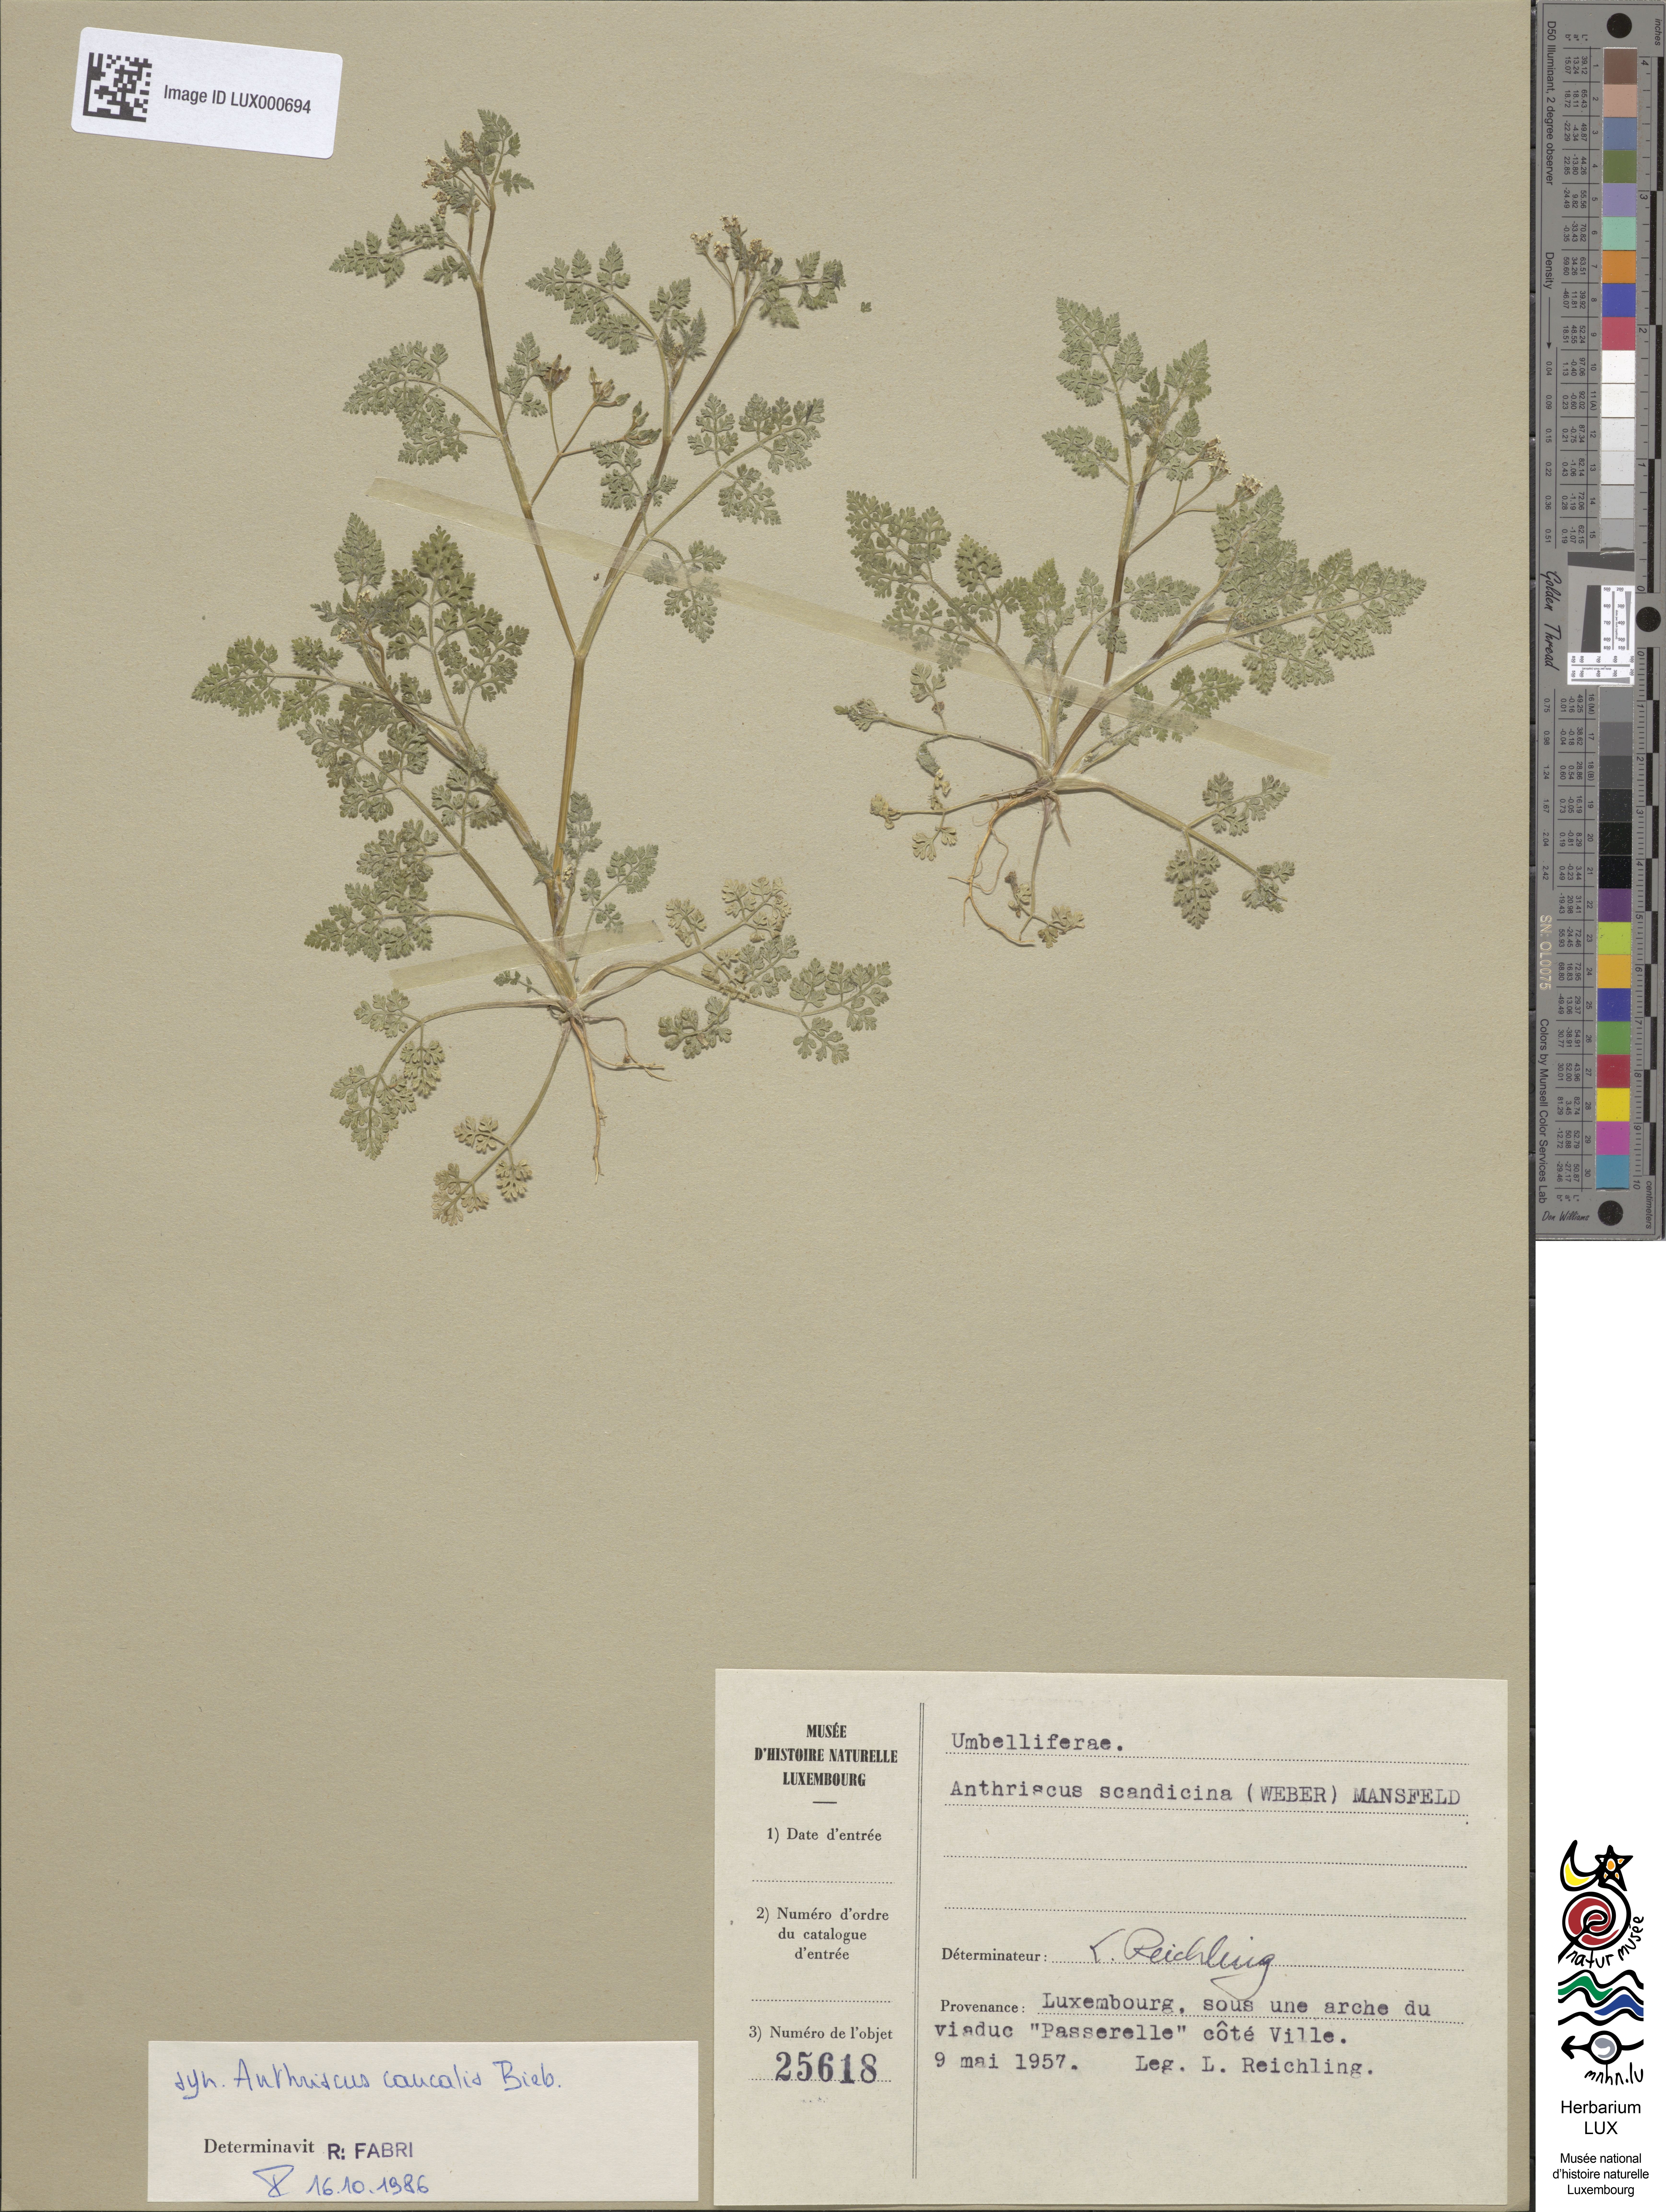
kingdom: Plantae
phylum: Tracheophyta
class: Magnoliopsida
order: Apiales
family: Apiaceae
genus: Anthriscus
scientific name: Anthriscus caucalis
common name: Bur chervil
